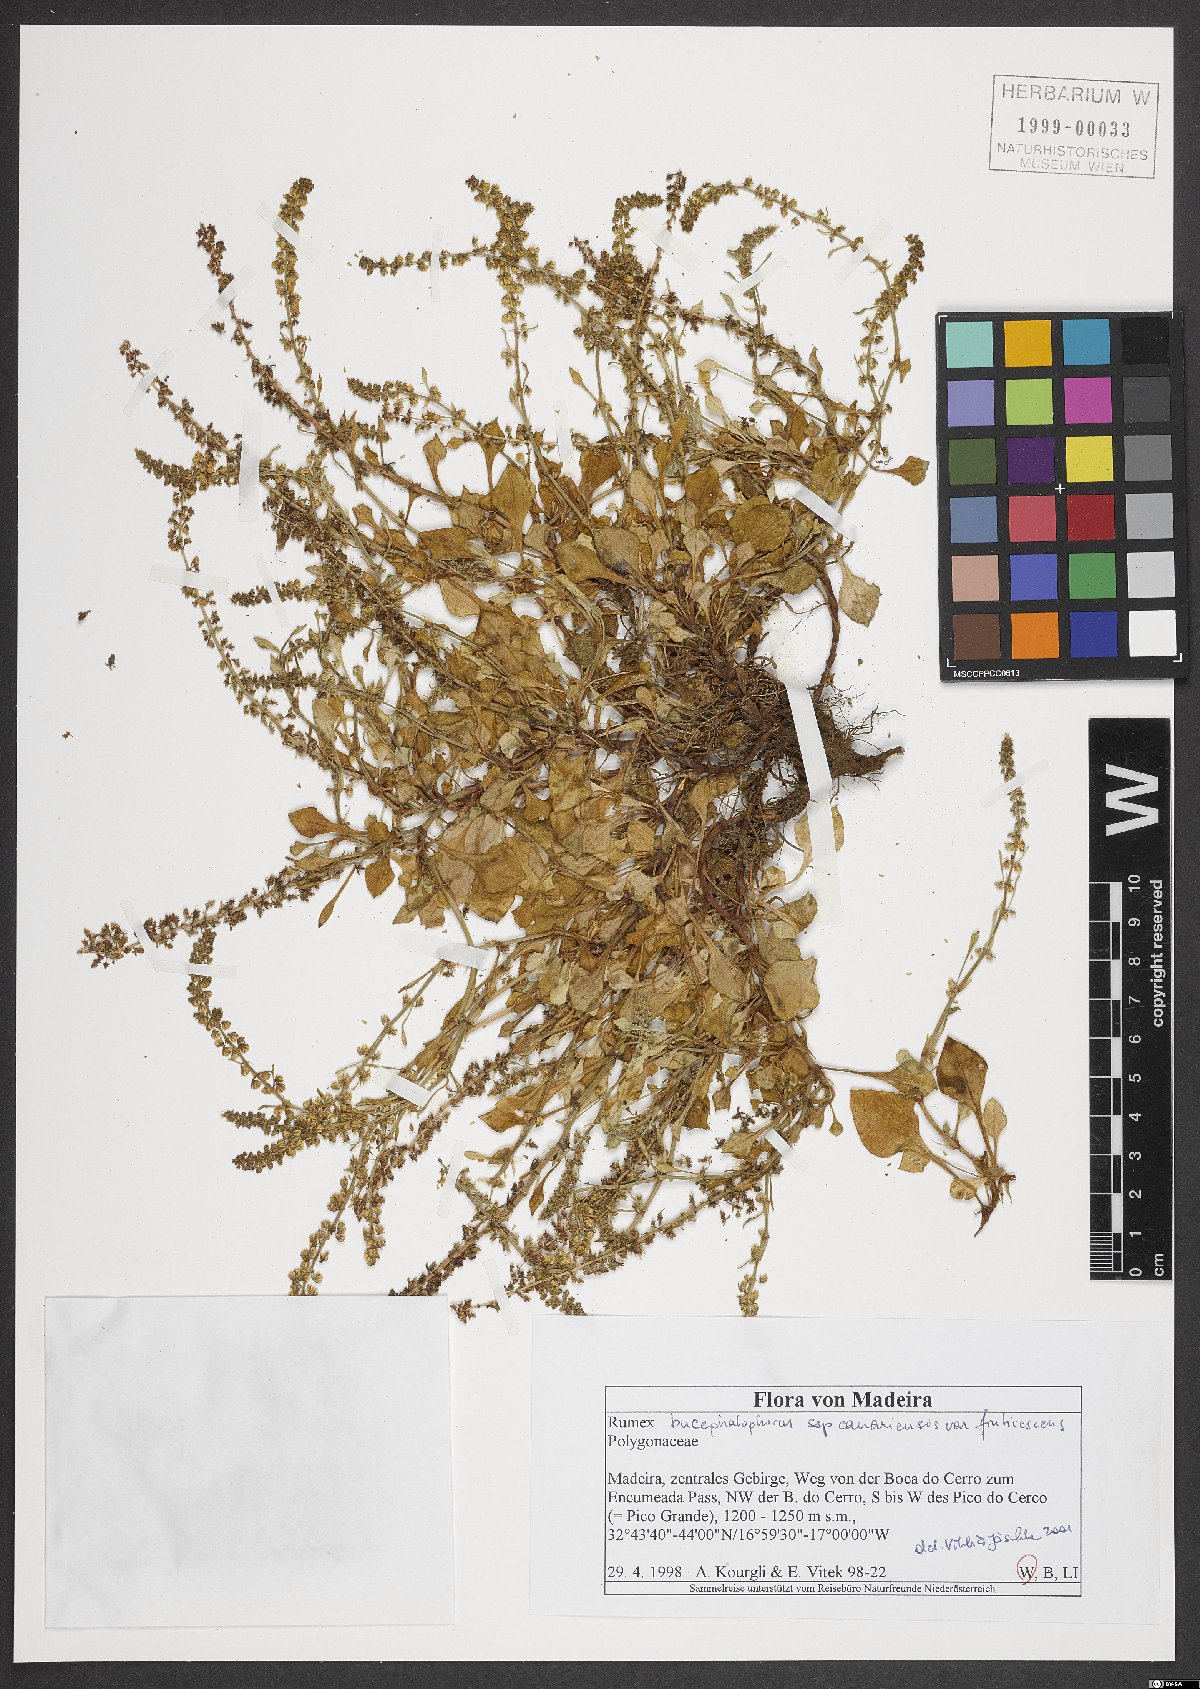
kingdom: Plantae
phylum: Tracheophyta
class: Magnoliopsida
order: Caryophyllales
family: Polygonaceae
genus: Rumex
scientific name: Rumex bucephalophorus
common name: Red dock
